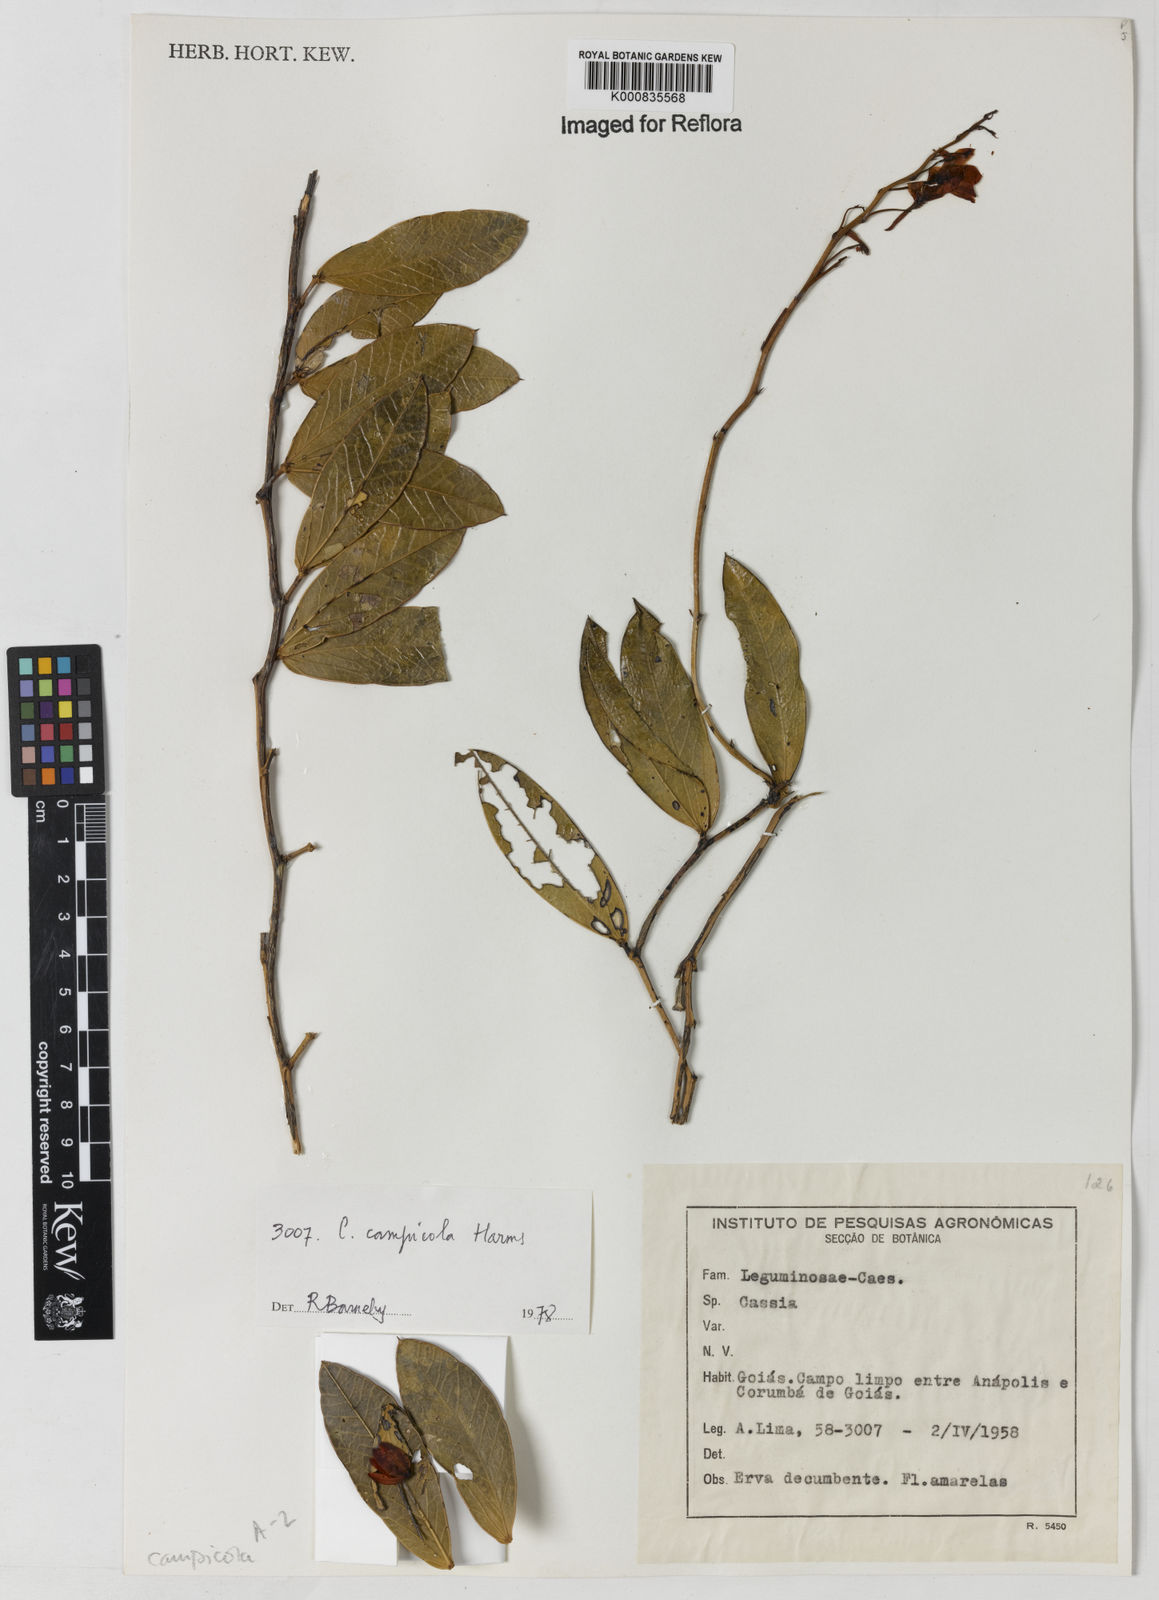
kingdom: Plantae
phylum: Tracheophyta
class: Magnoliopsida
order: Fabales
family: Fabaceae
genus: Chamaecrista
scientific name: Chamaecrista campicola
